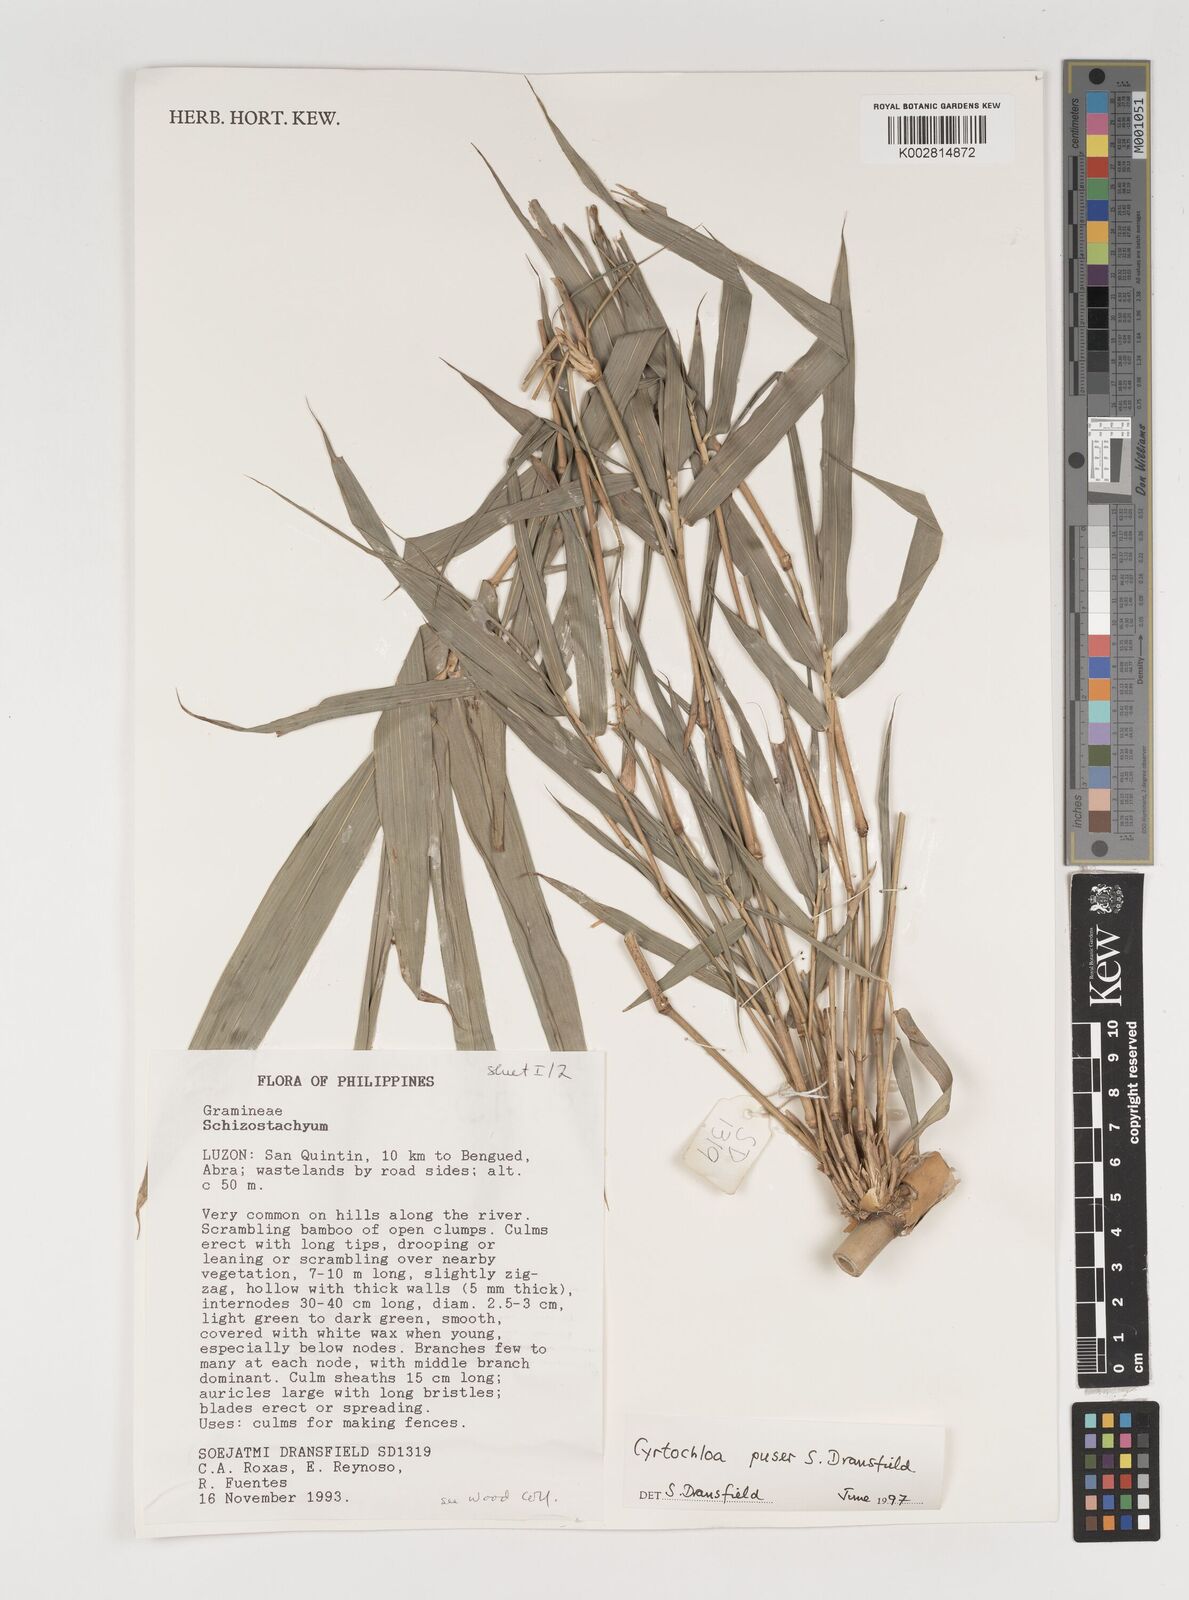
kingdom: Plantae
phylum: Tracheophyta
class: Liliopsida
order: Poales
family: Poaceae
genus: Cyrtochloa
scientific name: Cyrtochloa puser
